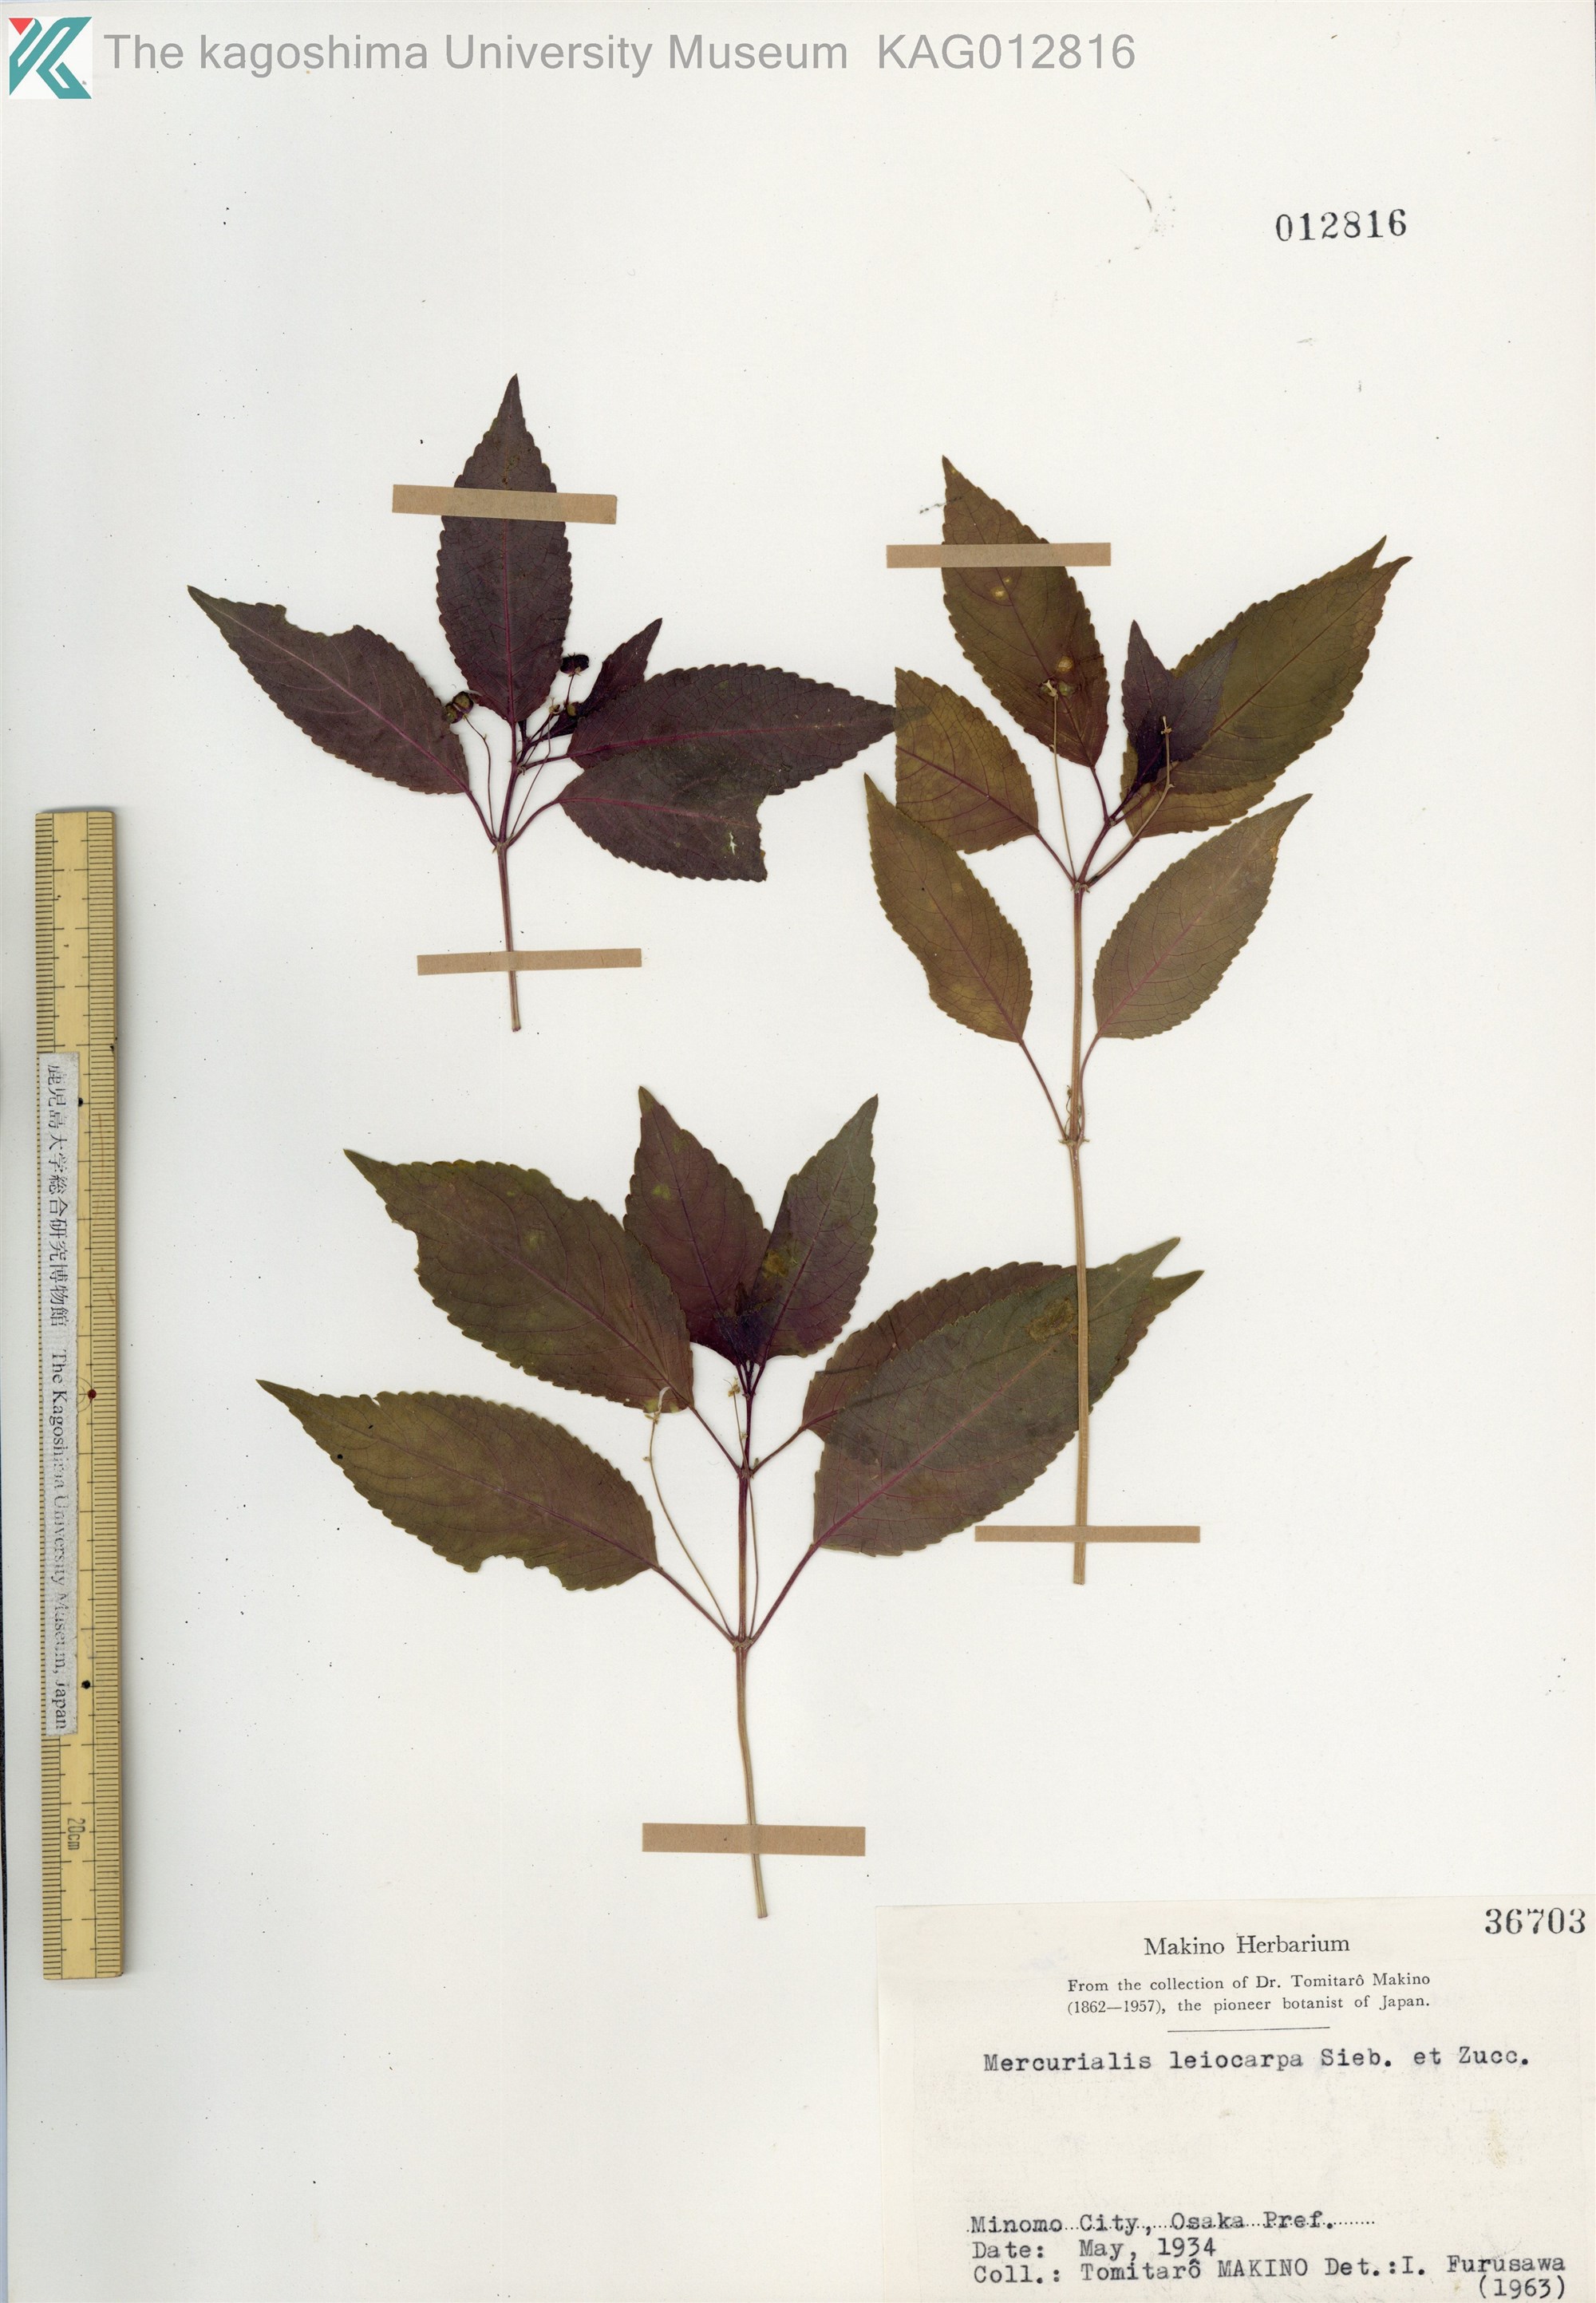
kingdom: Plantae
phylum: Tracheophyta
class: Magnoliopsida
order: Malpighiales
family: Euphorbiaceae
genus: Mercurialis
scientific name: Mercurialis leiocarpa
